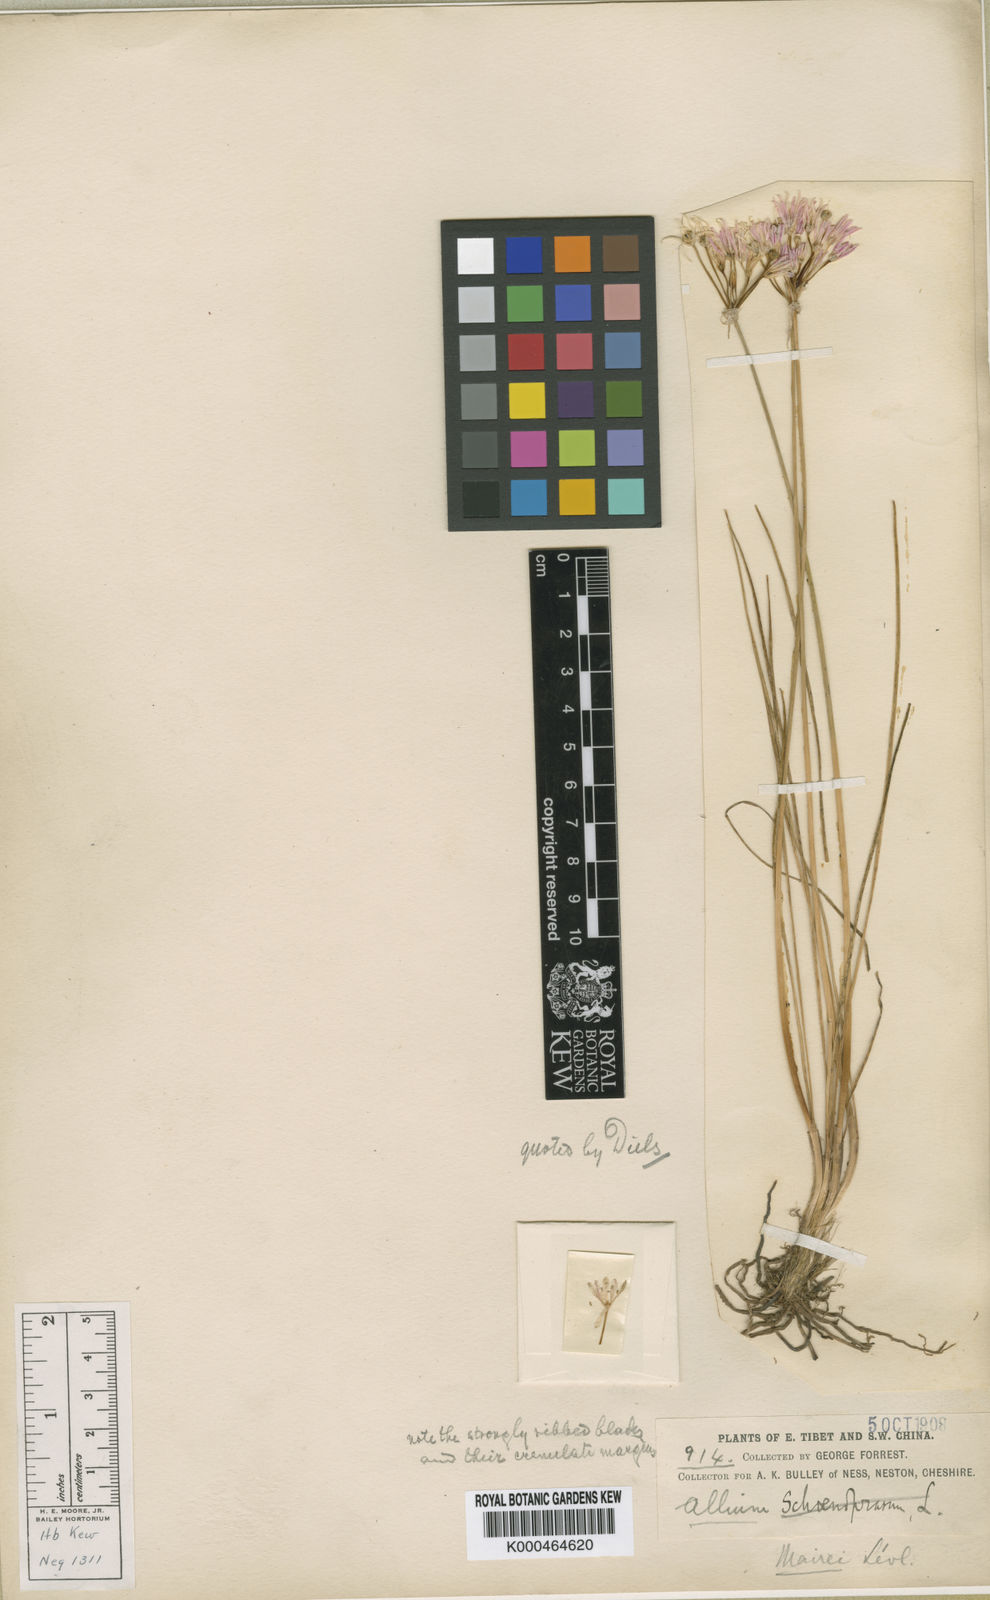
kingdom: Plantae
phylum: Tracheophyta
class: Liliopsida
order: Asparagales
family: Amaryllidaceae
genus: Allium
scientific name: Allium
